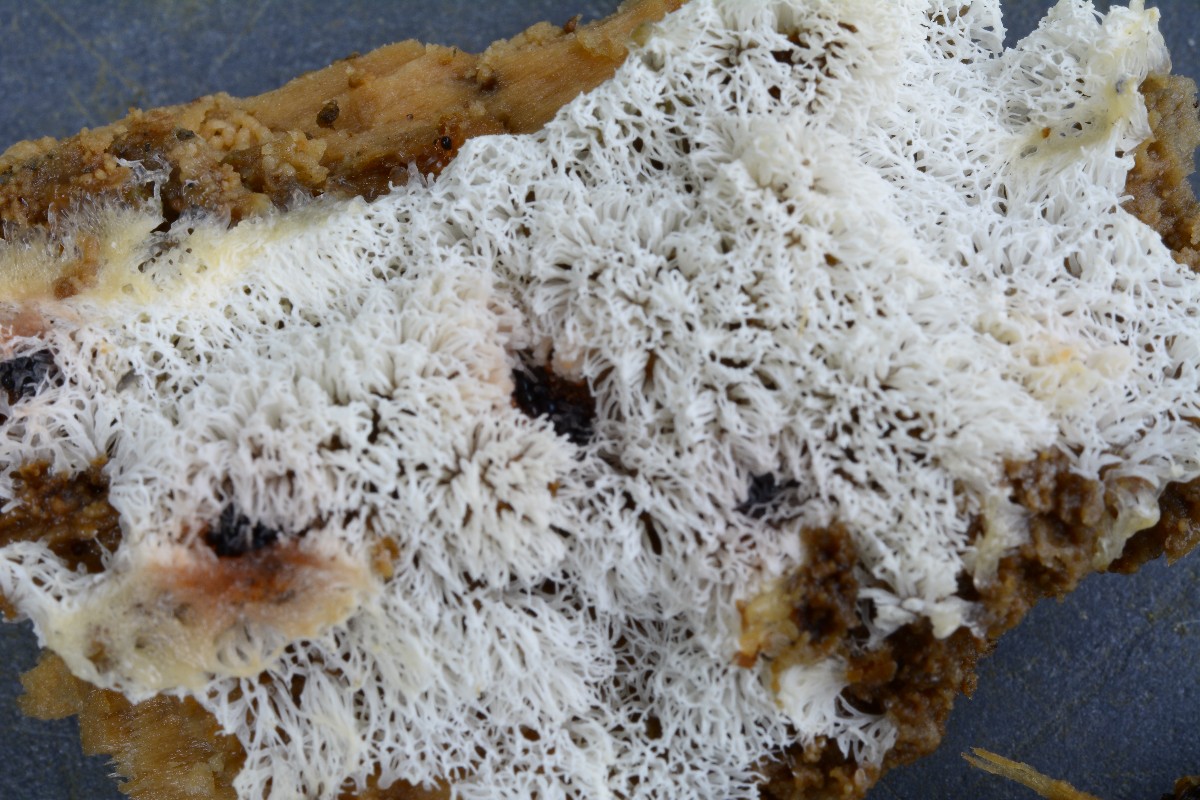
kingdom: Protozoa
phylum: Mycetozoa
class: Protosteliomycetes
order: Ceratiomyxales
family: Ceratiomyxaceae
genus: Ceratiomyxa
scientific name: Ceratiomyxa fruticulosa
